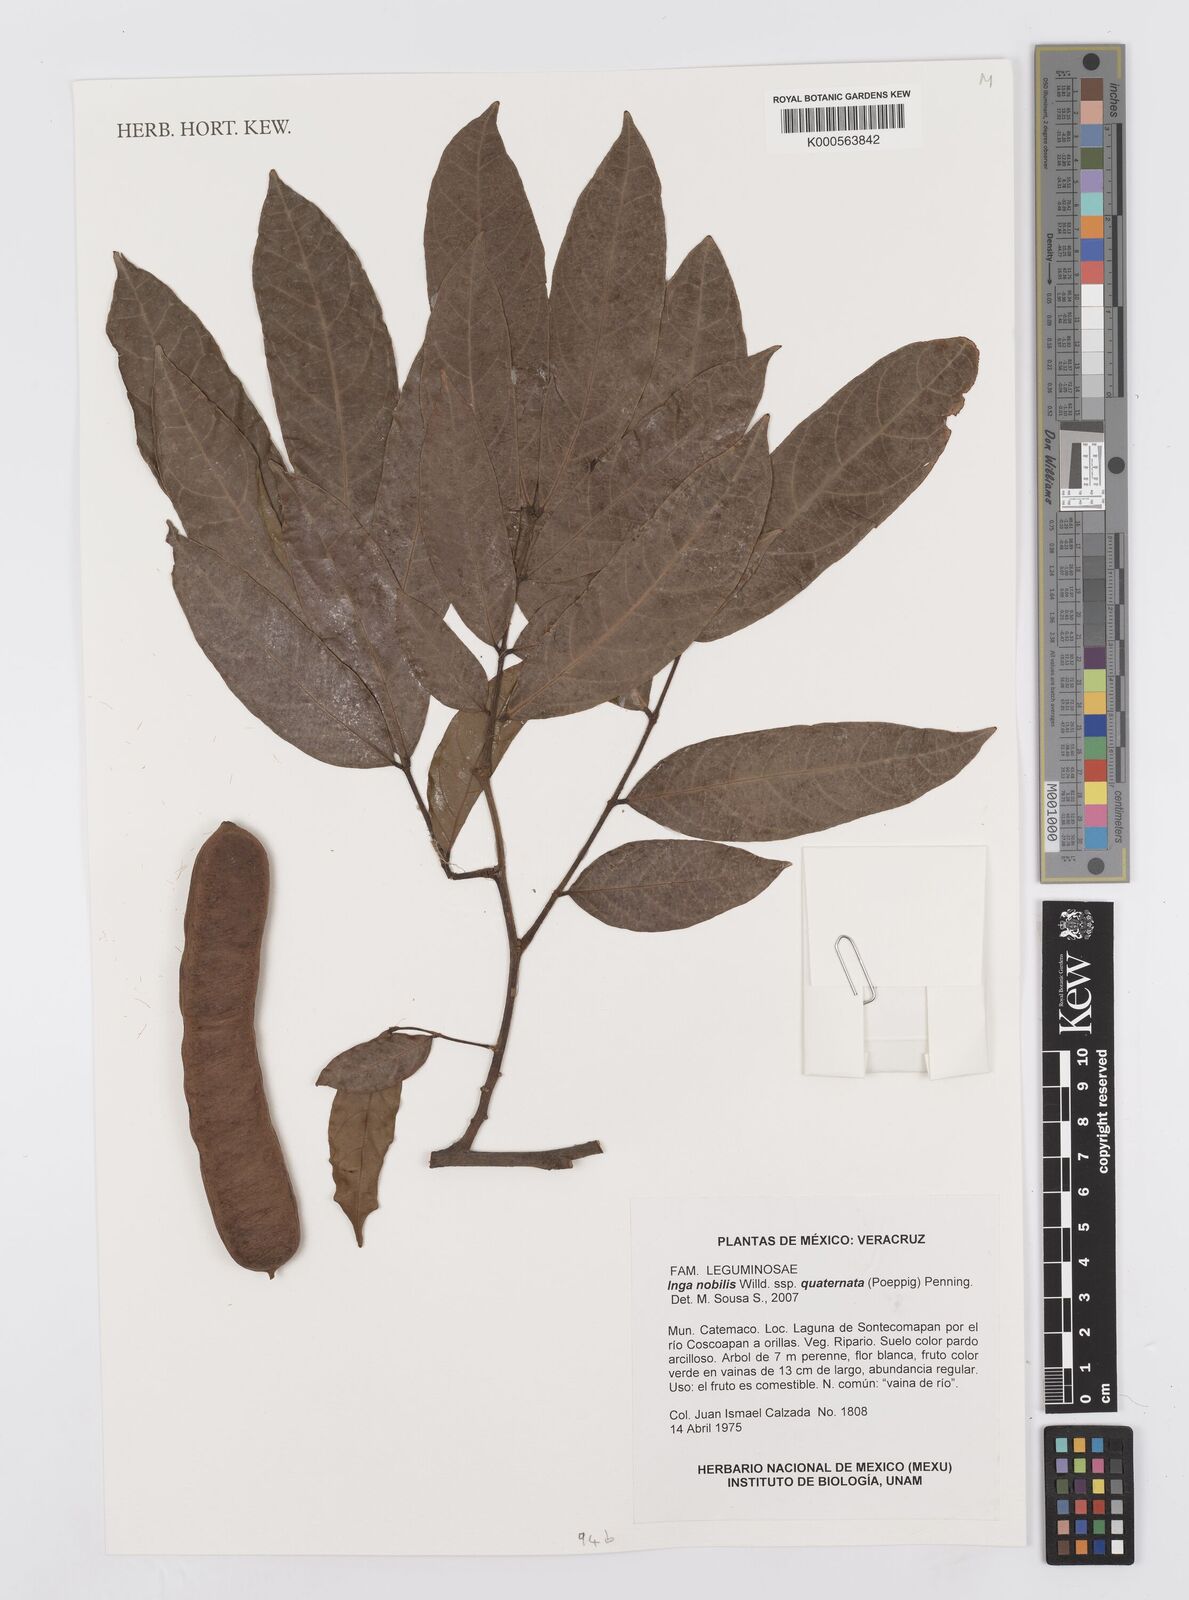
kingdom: Plantae
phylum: Tracheophyta
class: Magnoliopsida
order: Fabales
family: Fabaceae
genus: Inga
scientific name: Inga nobilis
